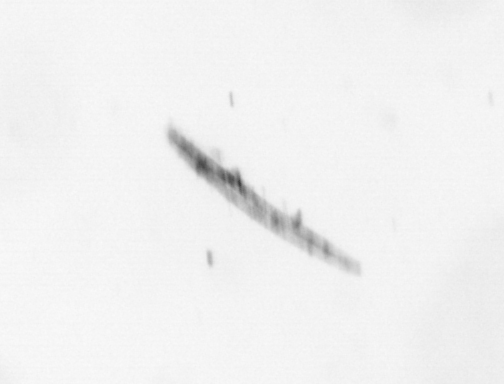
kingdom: Chromista
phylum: Ochrophyta
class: Bacillariophyceae
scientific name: Bacillariophyceae
